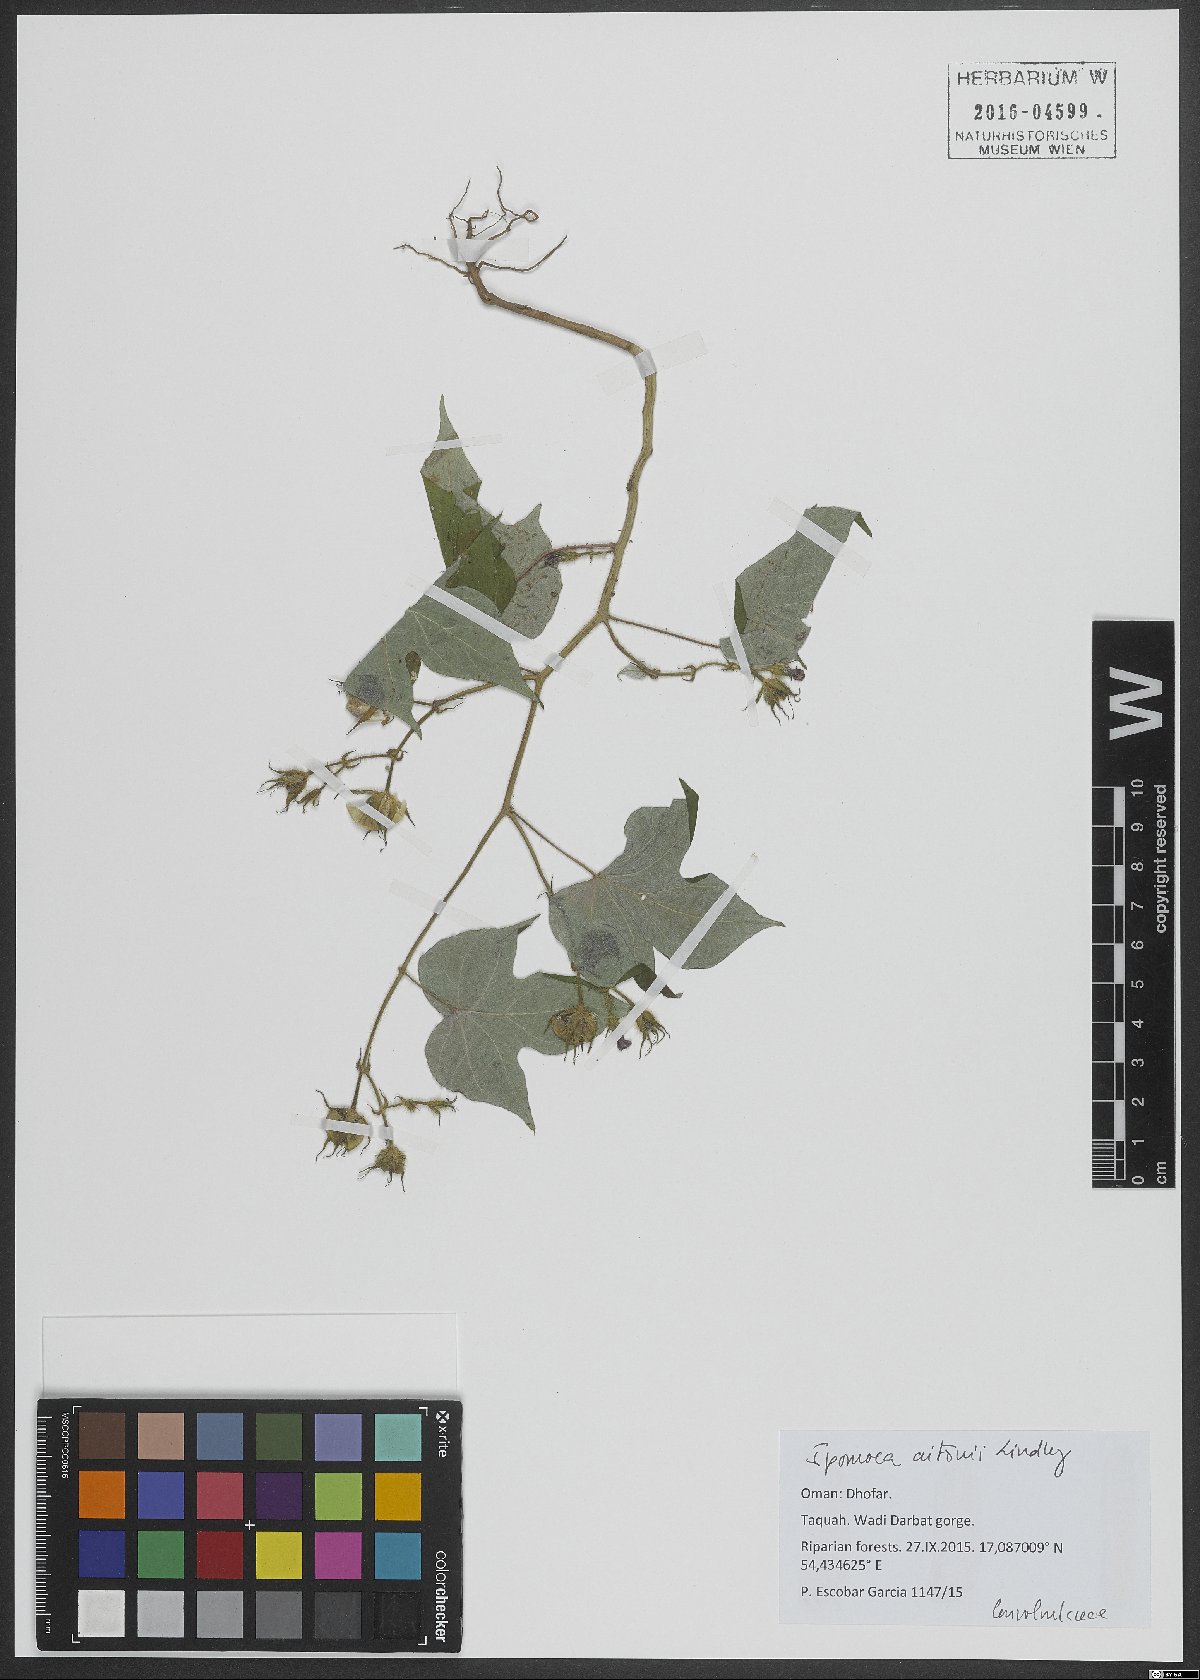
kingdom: Plantae
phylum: Tracheophyta
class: Magnoliopsida
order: Solanales
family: Convolvulaceae
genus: Ipomoea
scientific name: Ipomoea arachnosperma
